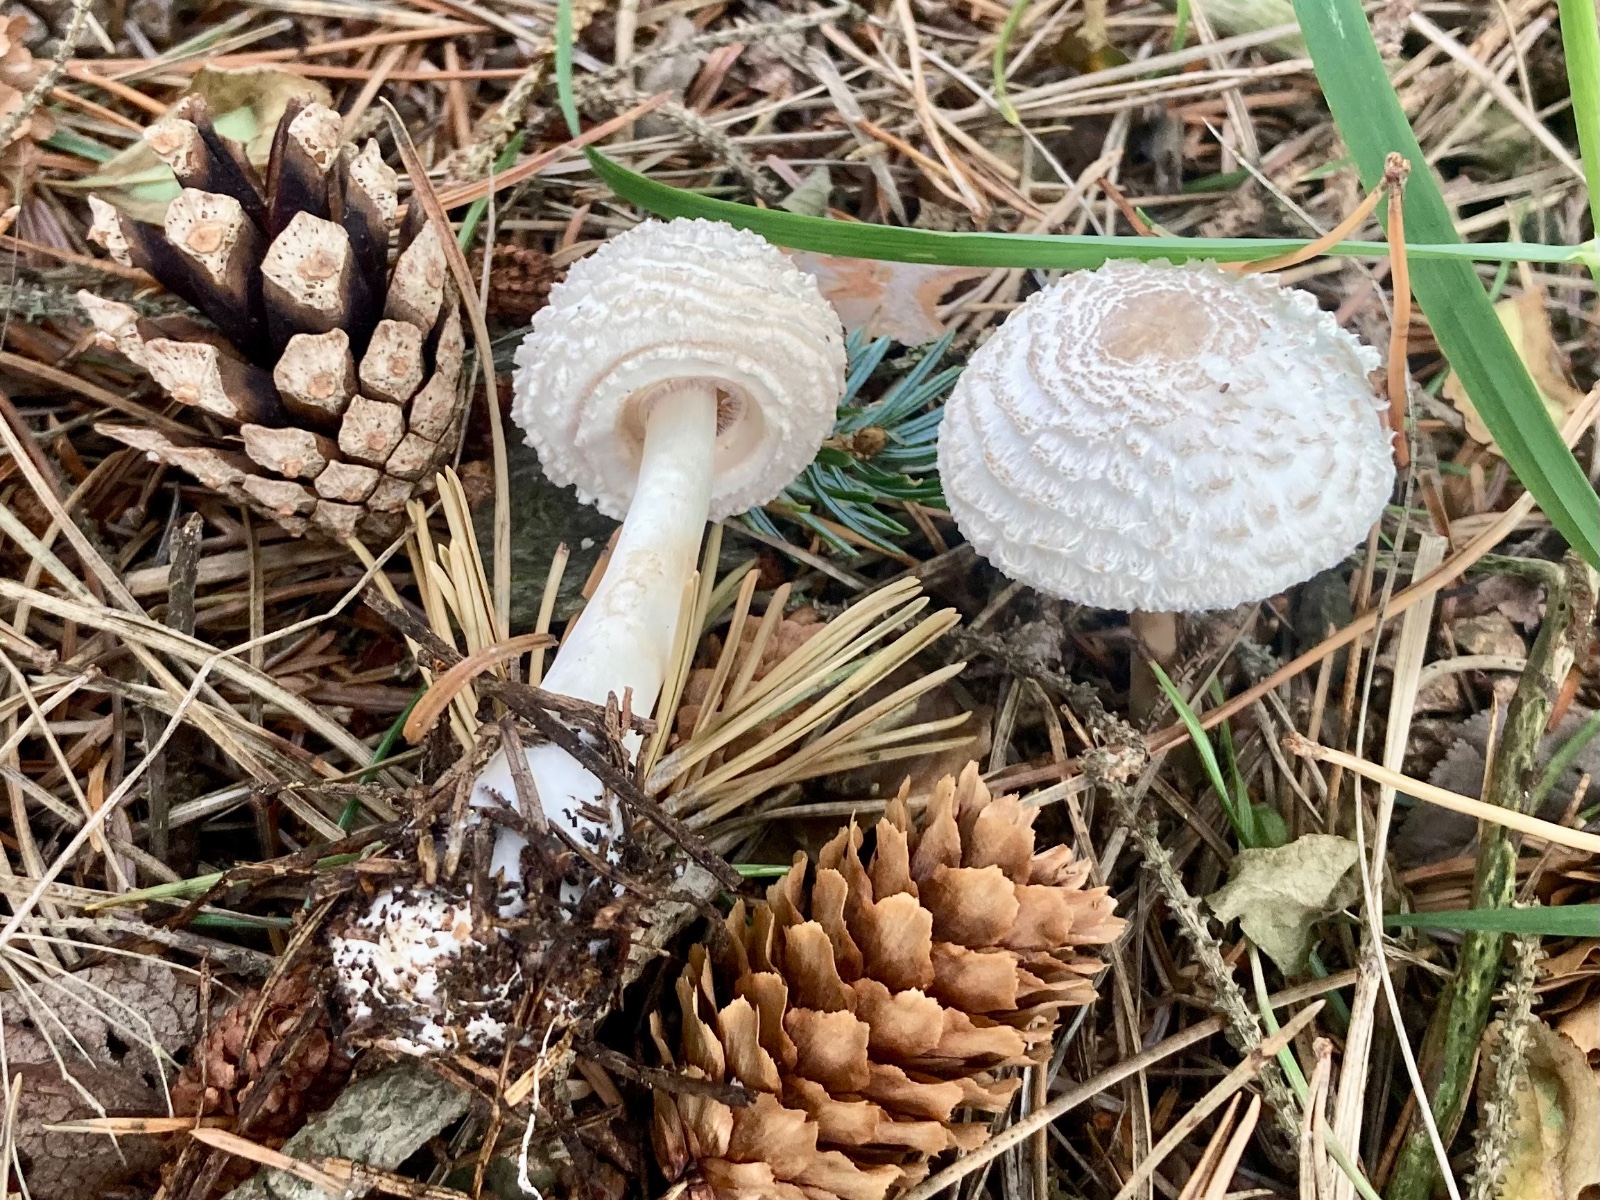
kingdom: Fungi
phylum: Basidiomycota
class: Agaricomycetes
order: Agaricales
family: Agaricaceae
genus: Leucoagaricus
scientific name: Leucoagaricus nympharum
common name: gran-silkehat
